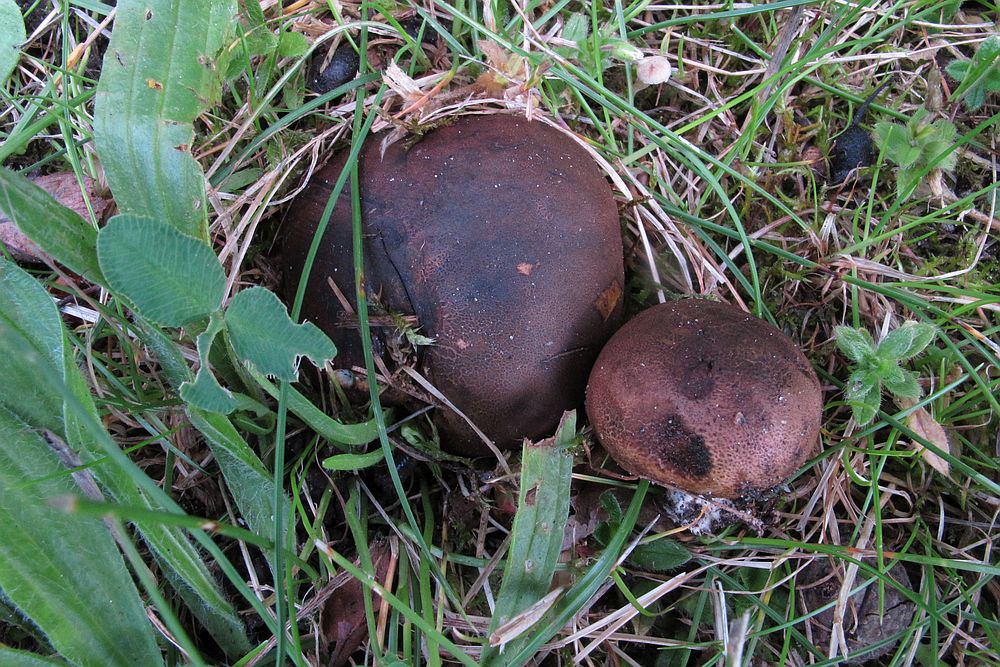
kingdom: Fungi
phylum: Basidiomycota
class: Agaricomycetes
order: Boletales
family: Sclerodermataceae
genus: Scleroderma
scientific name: Scleroderma cepa
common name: rødbrun bruskbold
